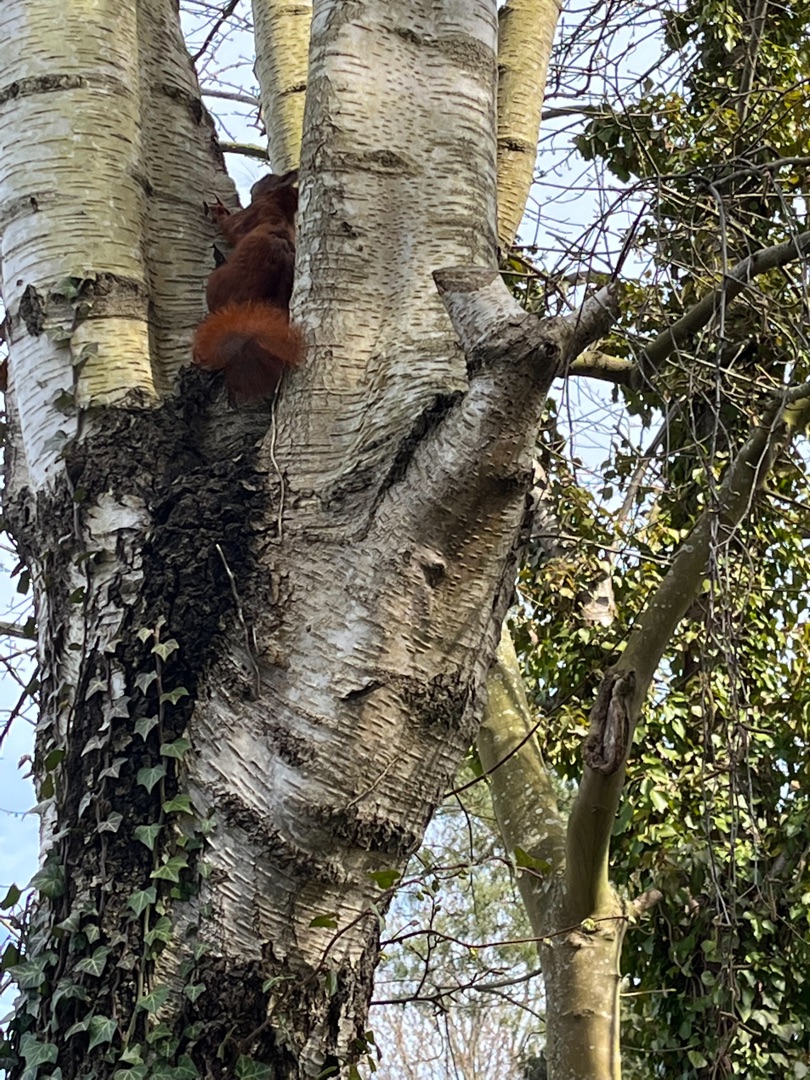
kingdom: Animalia
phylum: Chordata
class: Mammalia
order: Rodentia
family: Sciuridae
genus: Sciurus
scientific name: Sciurus vulgaris
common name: Egern
